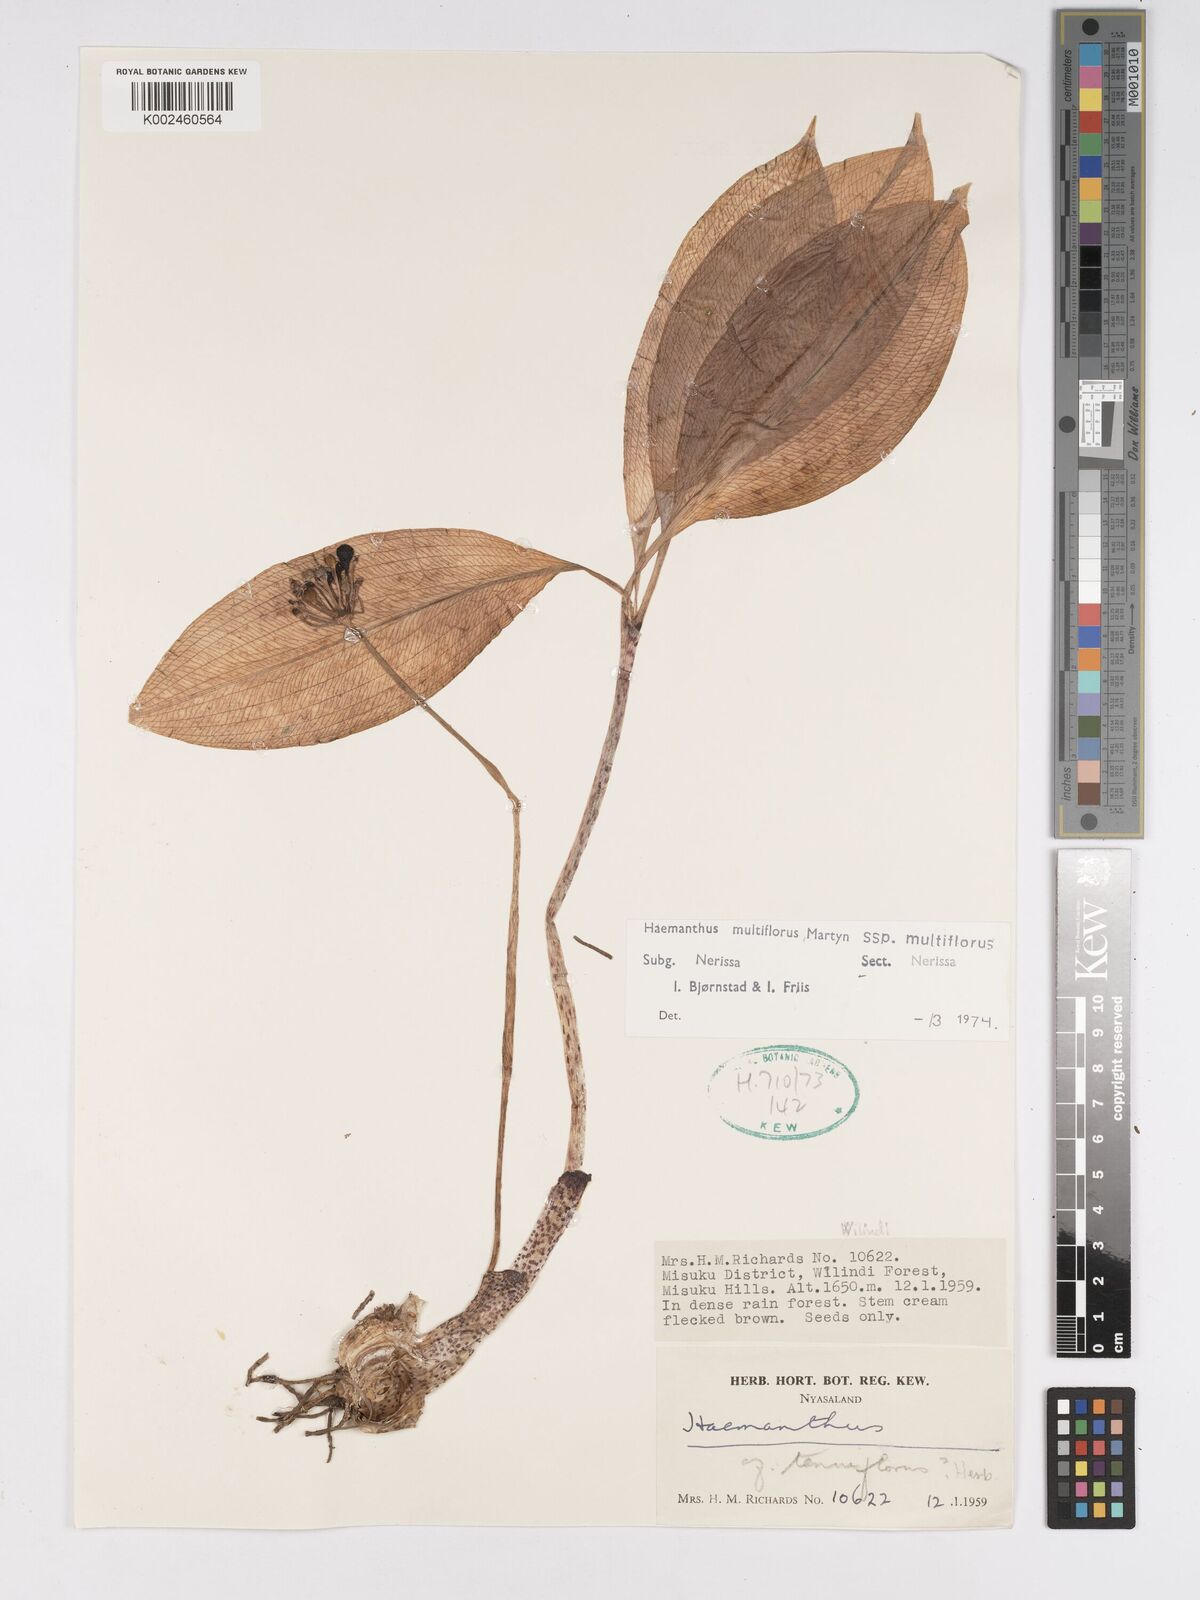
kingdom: Plantae
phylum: Tracheophyta
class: Liliopsida
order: Asparagales
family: Amaryllidaceae
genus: Scadoxus
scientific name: Scadoxus multiflorus
